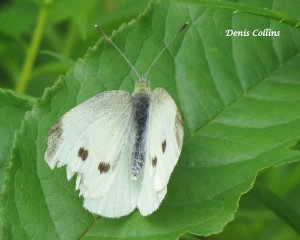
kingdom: Animalia
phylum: Arthropoda
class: Insecta
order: Lepidoptera
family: Pieridae
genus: Pieris
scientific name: Pieris rapae
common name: Cabbage White
